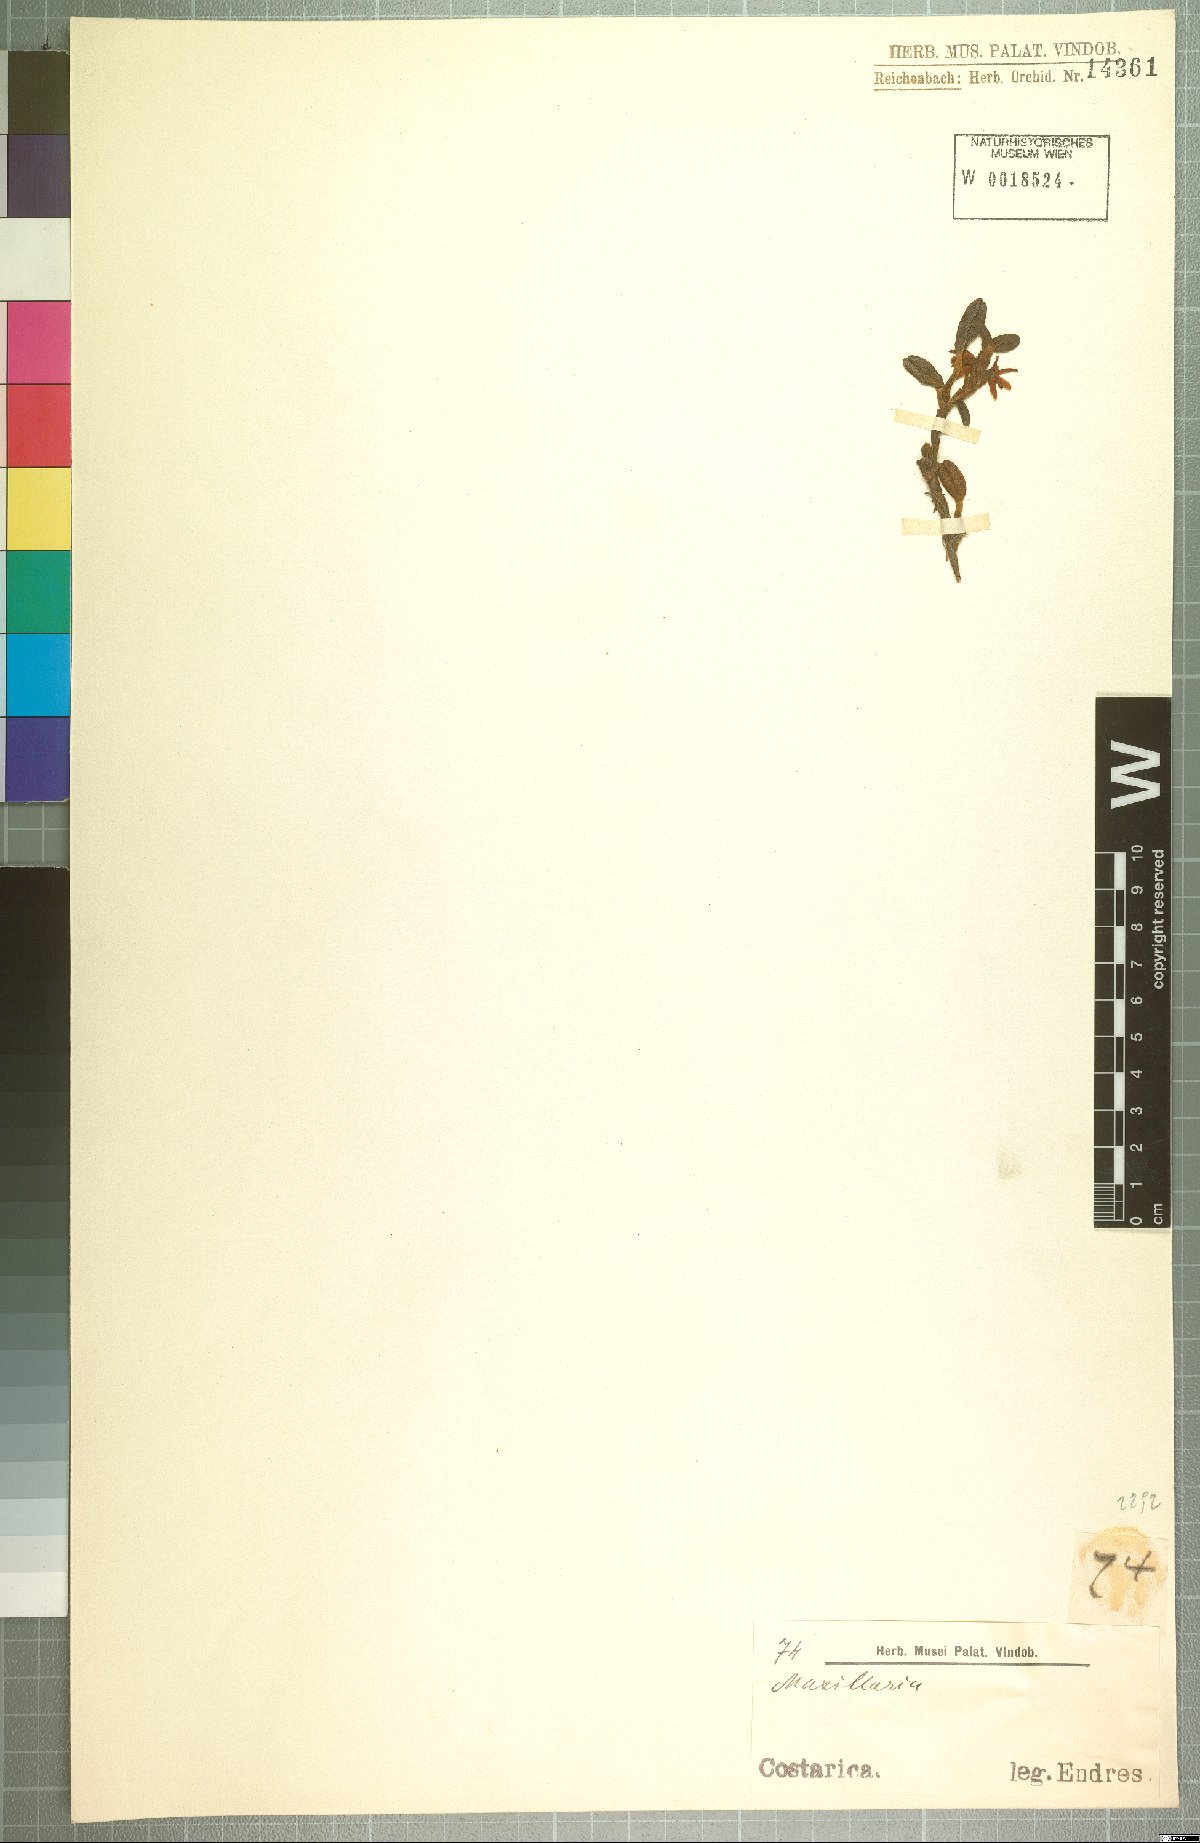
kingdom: Plantae
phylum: Tracheophyta
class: Liliopsida
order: Asparagales
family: Orchidaceae
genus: Maxillaria
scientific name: Maxillaria
